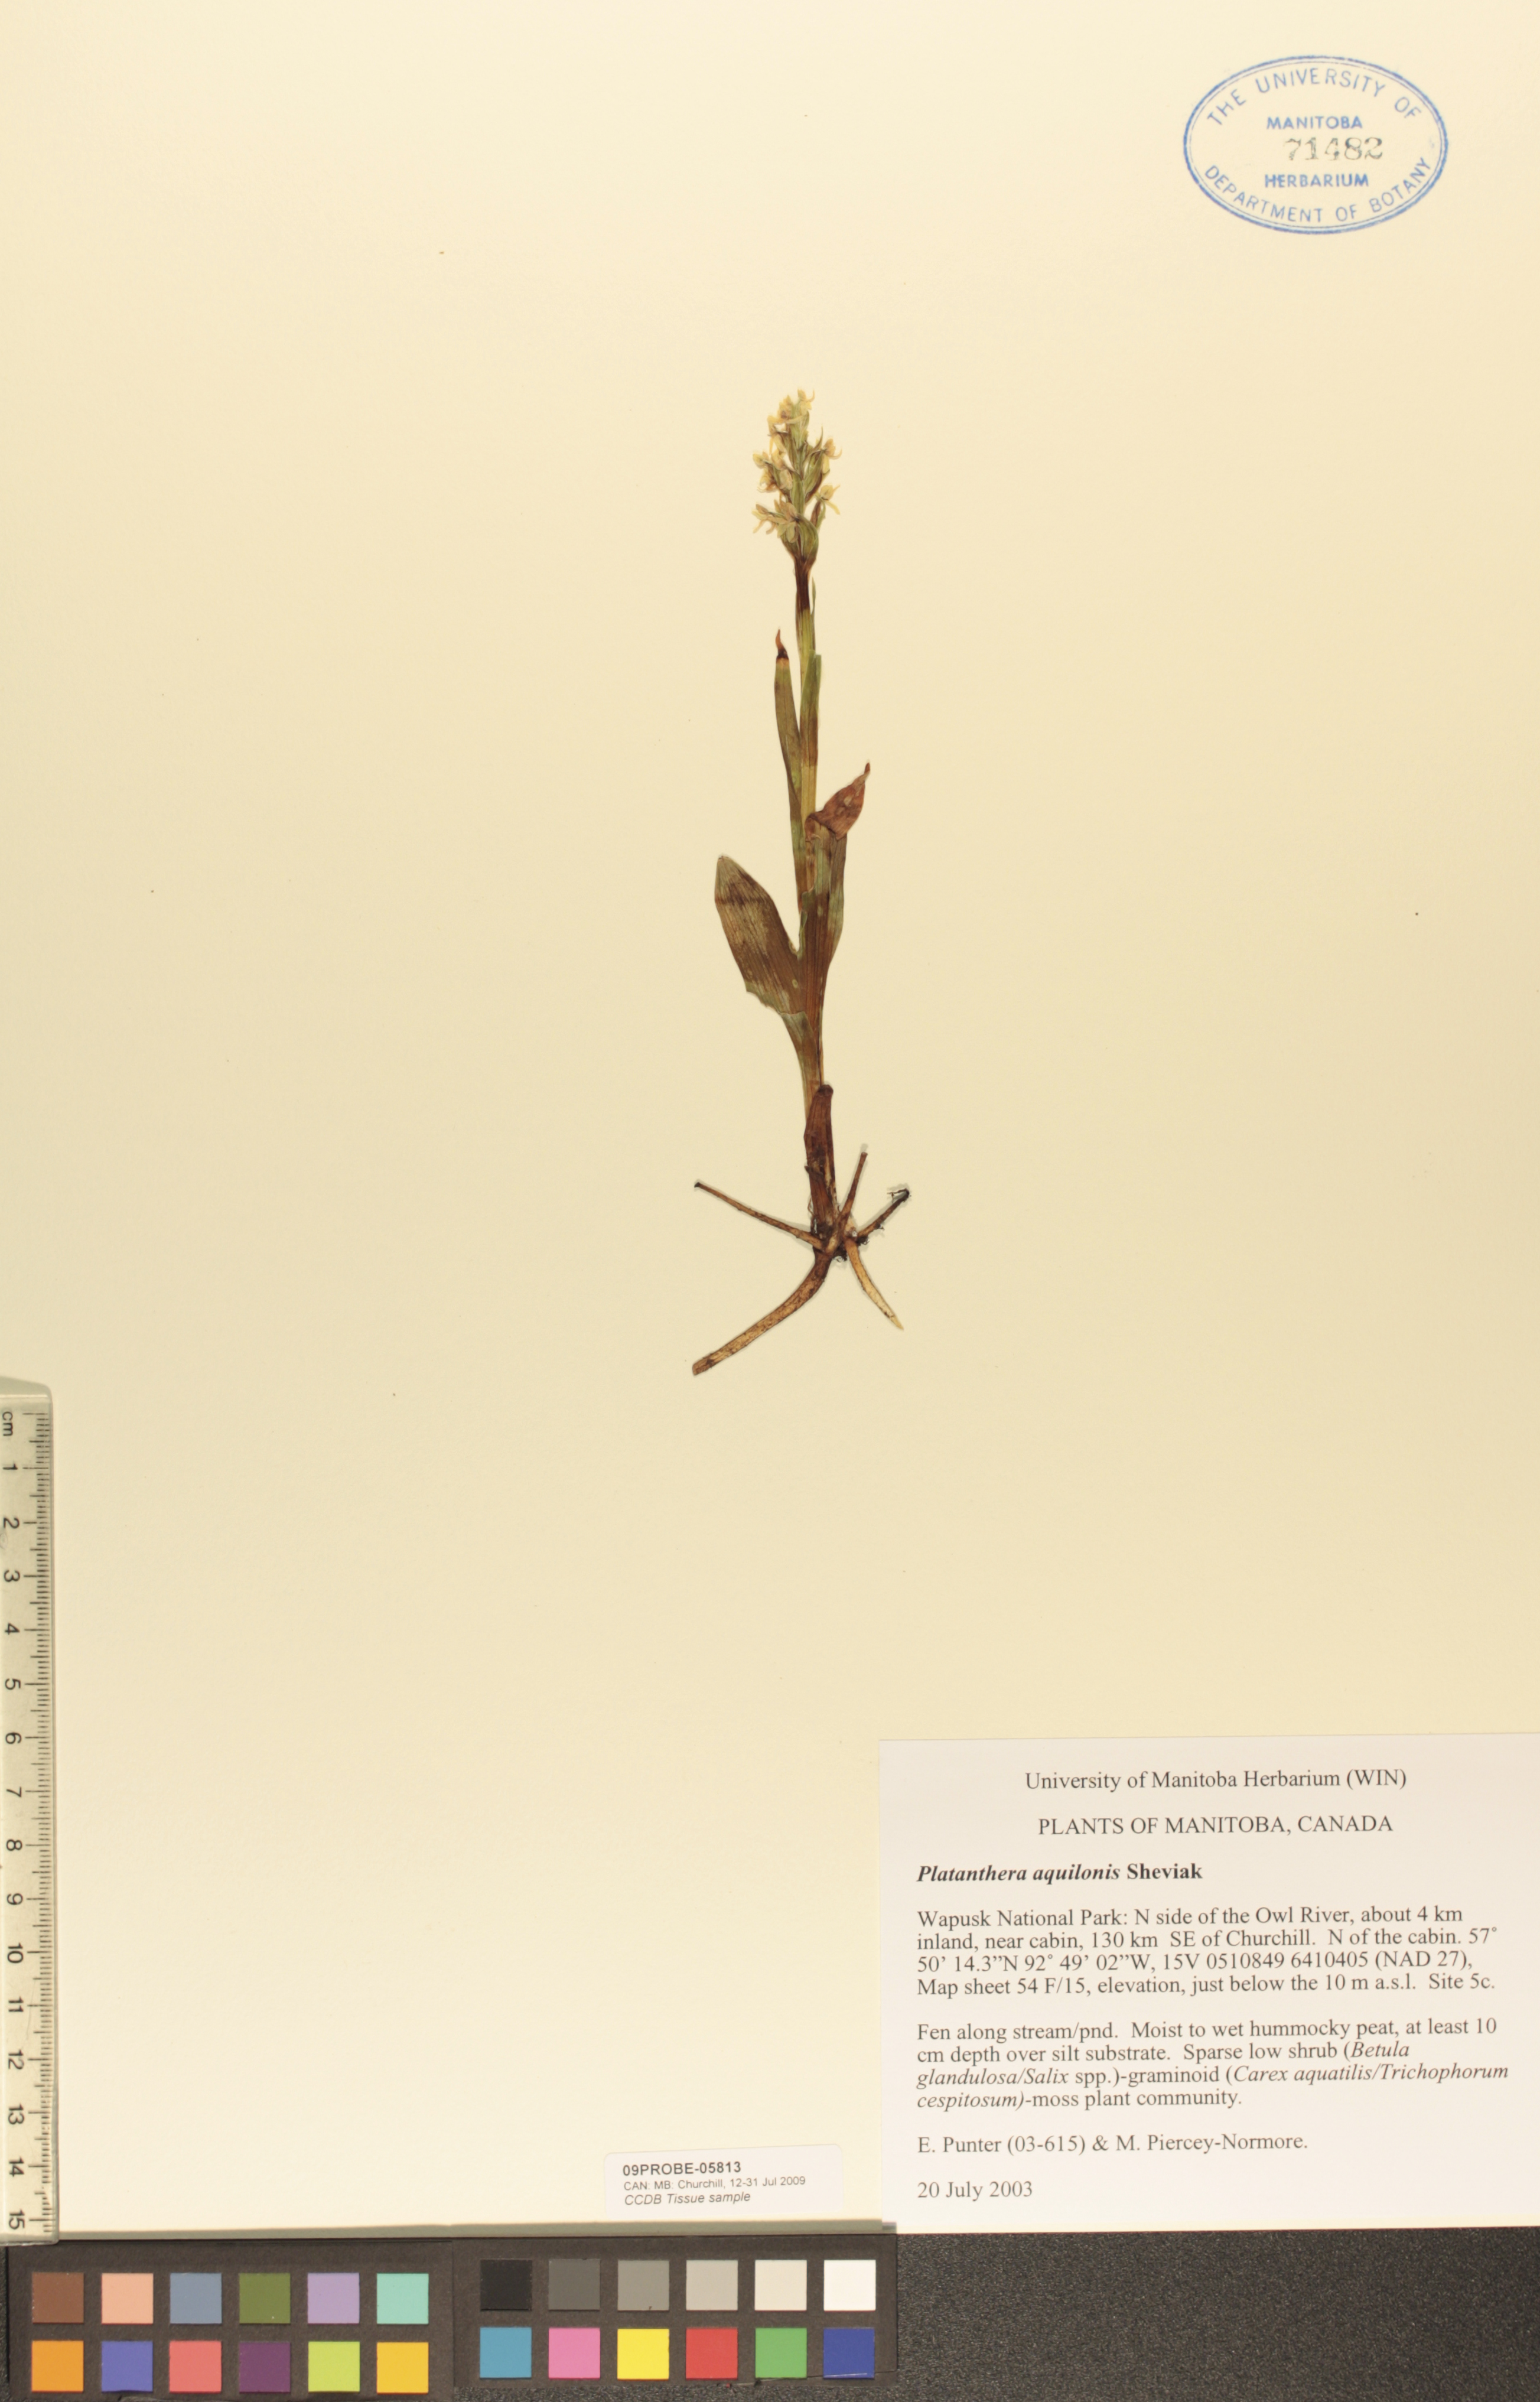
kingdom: Plantae
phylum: Tracheophyta
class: Liliopsida
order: Asparagales
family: Orchidaceae
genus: Platanthera
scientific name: Platanthera aquilonis
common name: Northern green orchid
